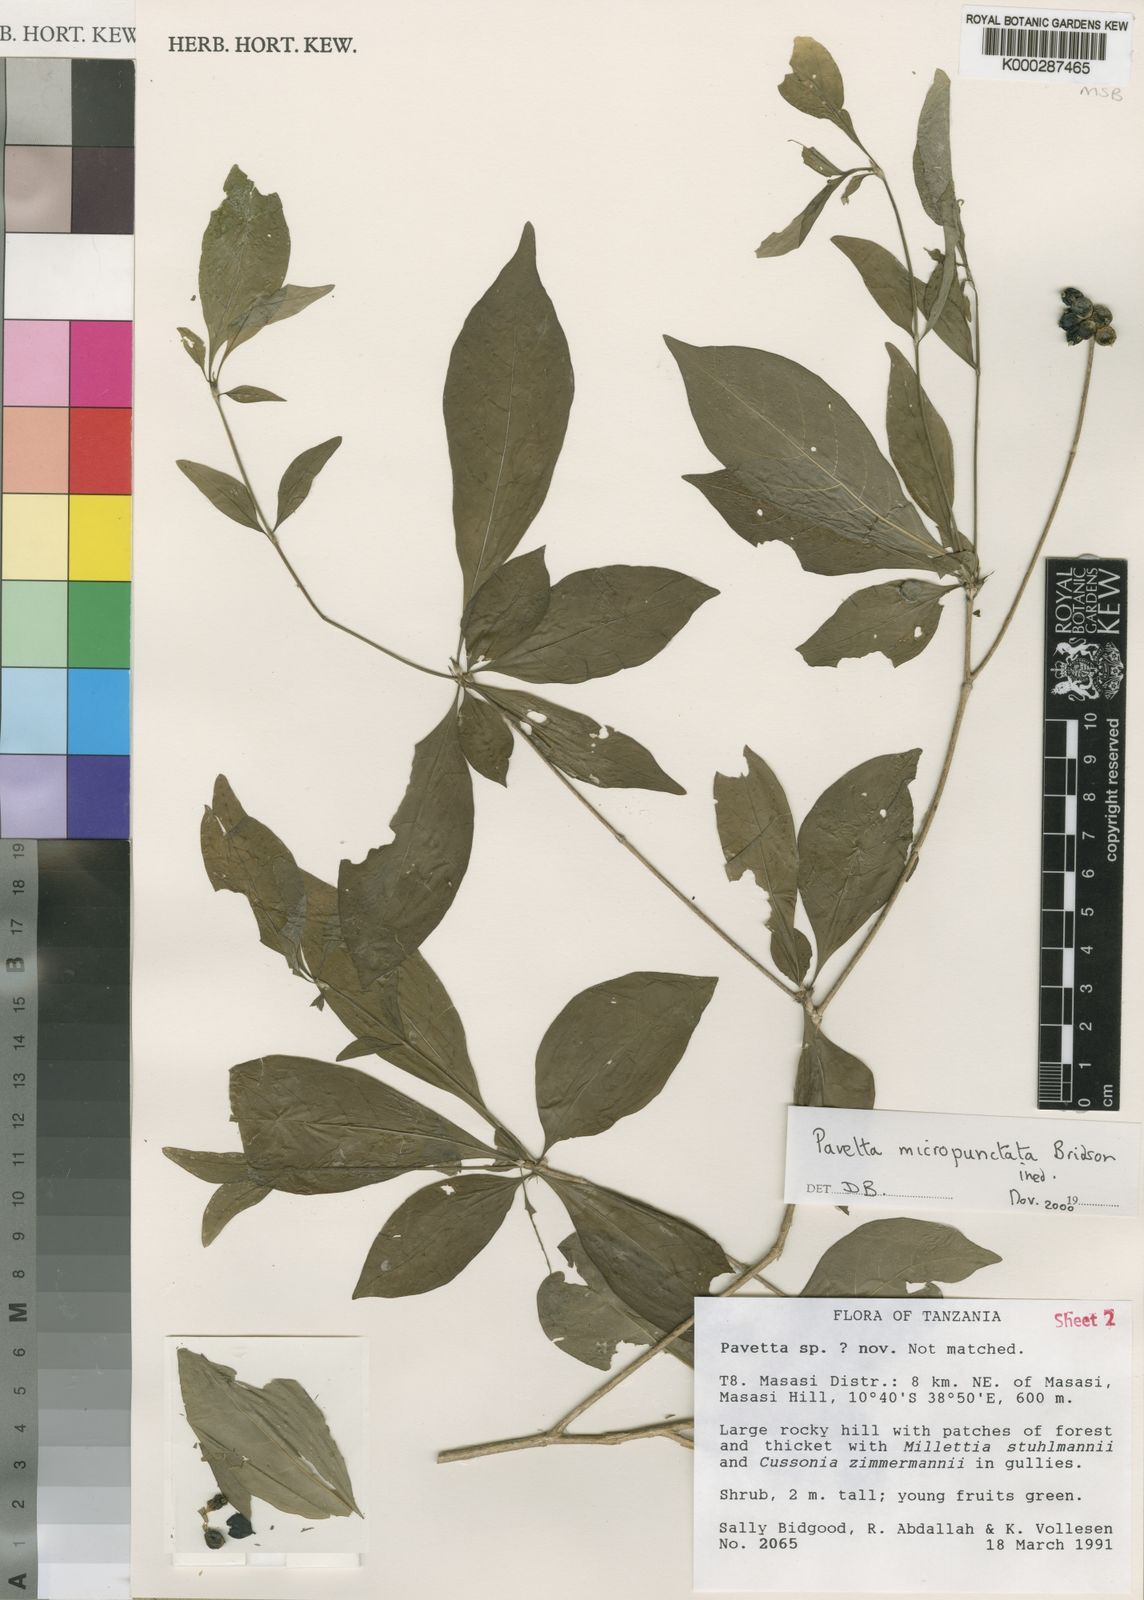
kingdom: Plantae
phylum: Tracheophyta
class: Magnoliopsida
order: Gentianales
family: Rubiaceae
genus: Pavetta
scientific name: Pavetta micropunctata
